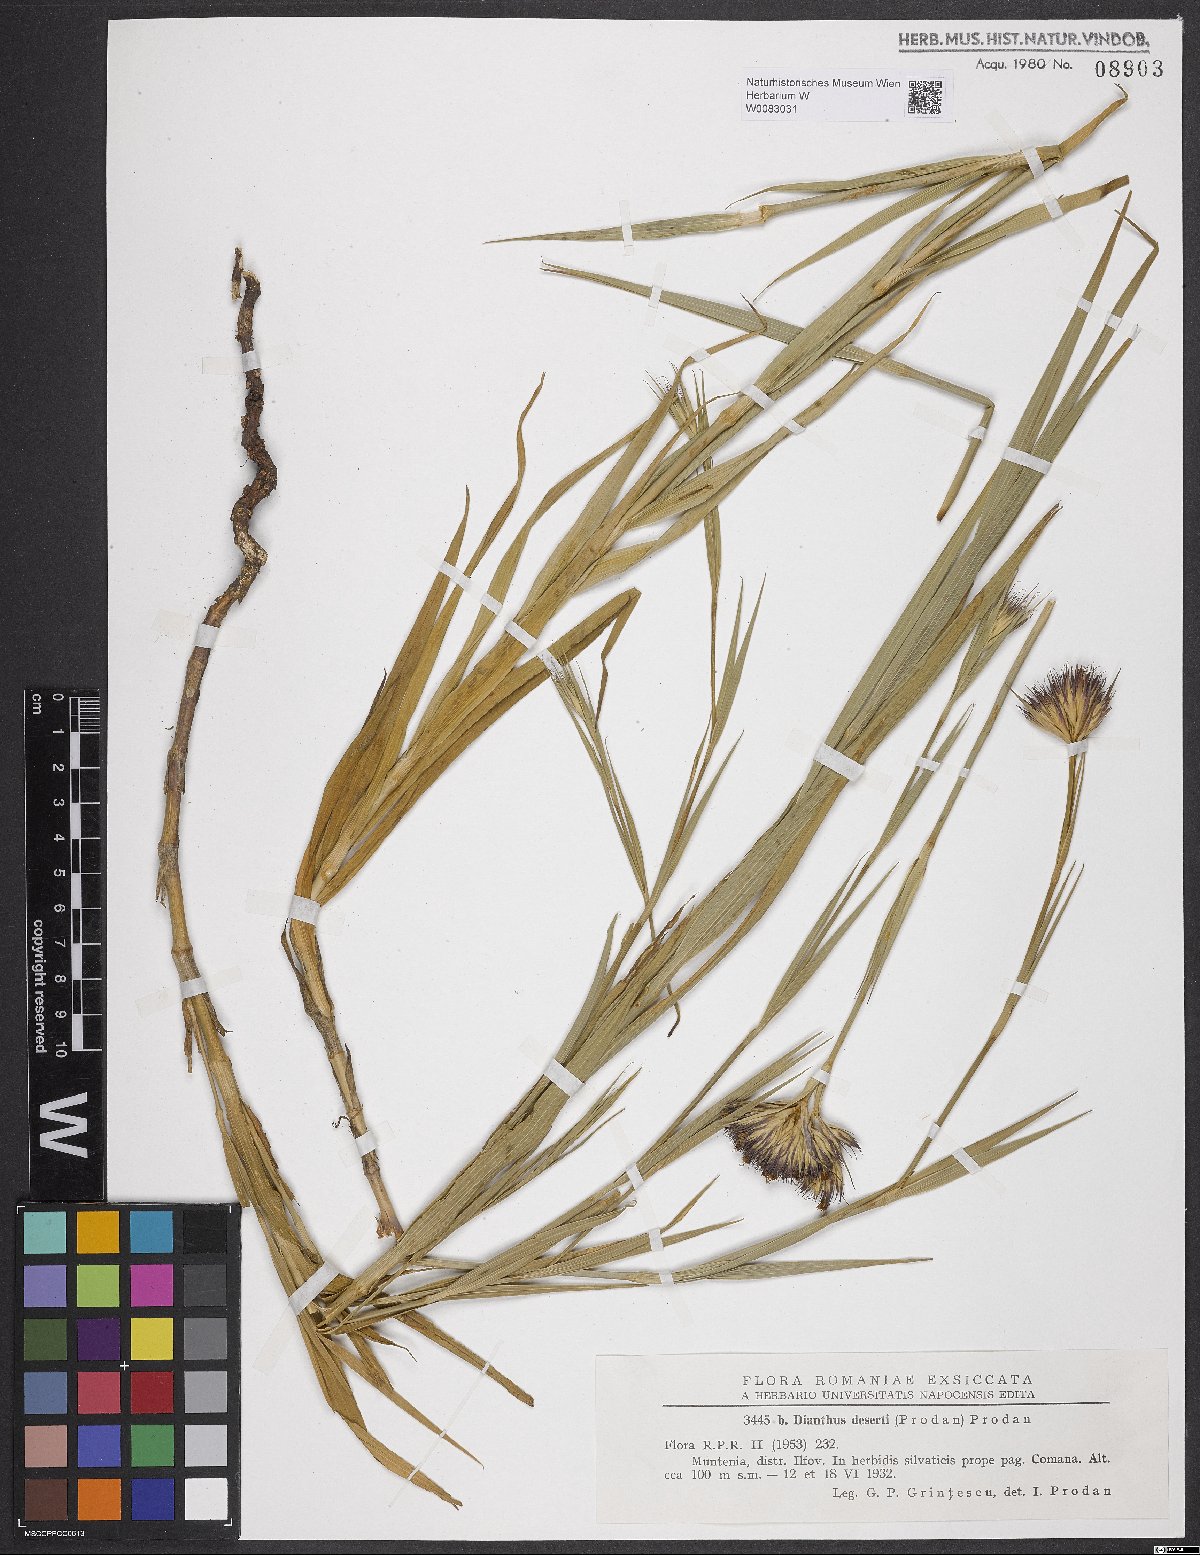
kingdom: Plantae
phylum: Tracheophyta
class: Magnoliopsida
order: Caryophyllales
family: Caryophyllaceae
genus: Dianthus
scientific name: Dianthus trifasciculatus
